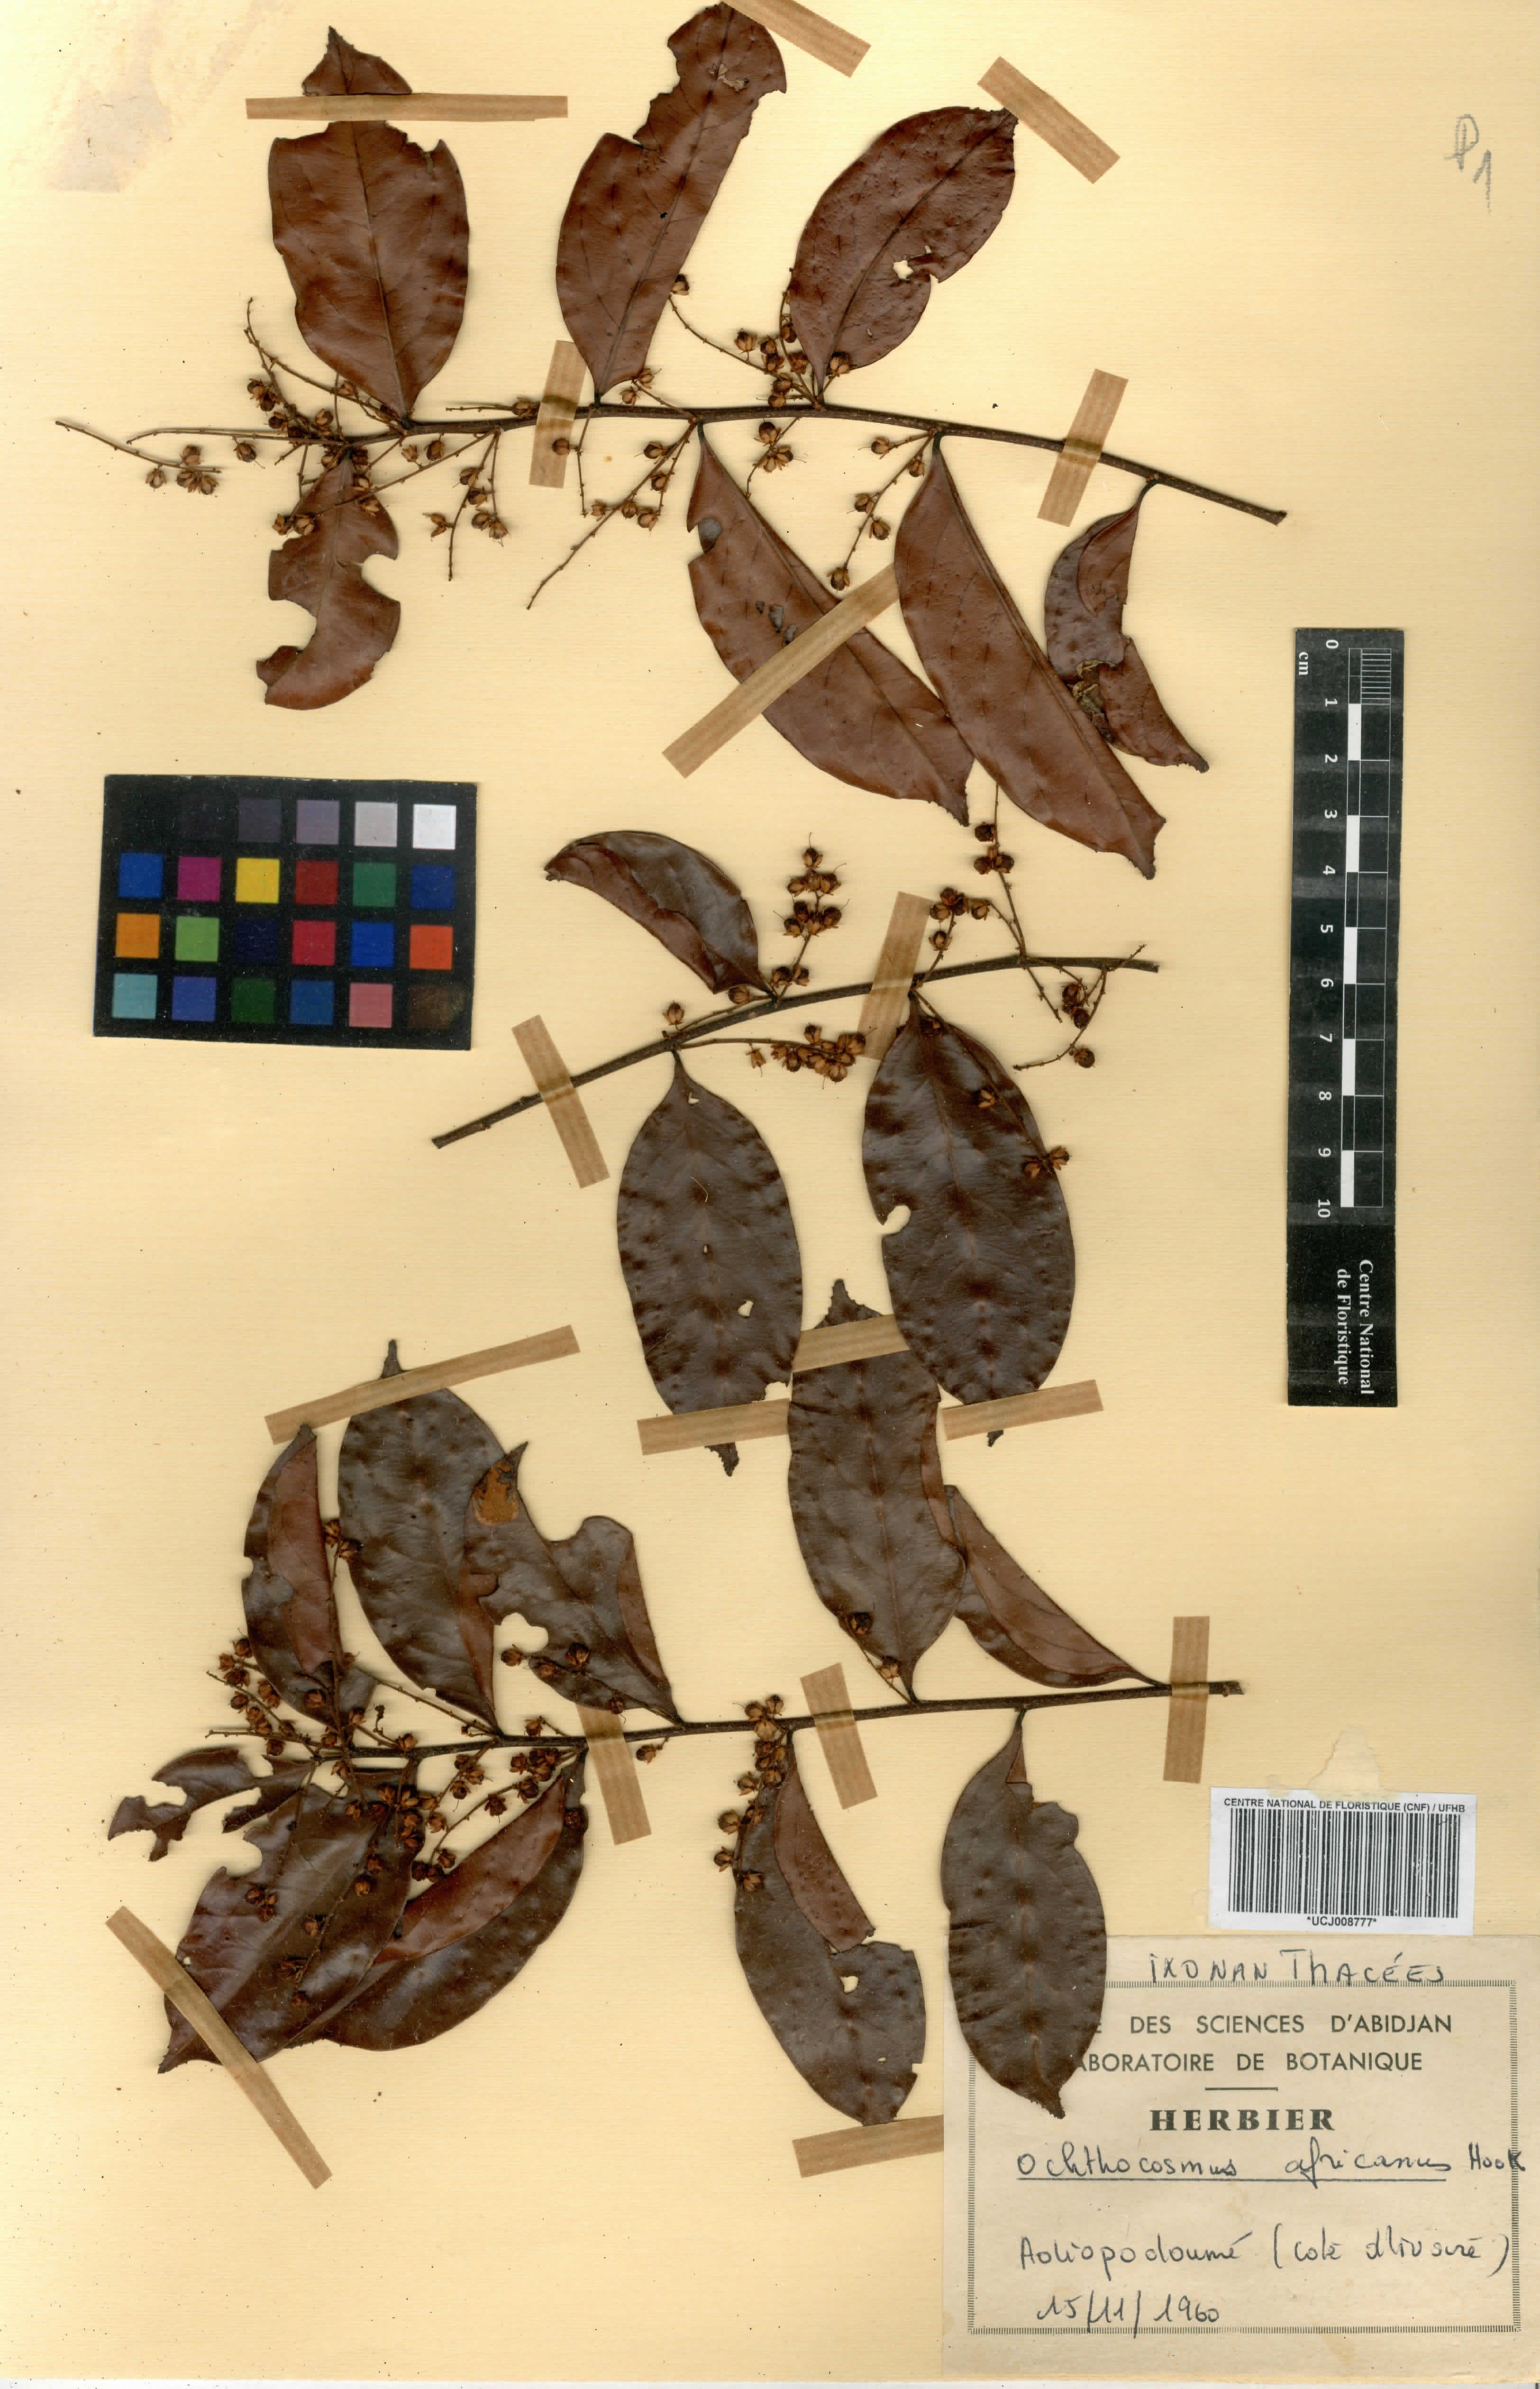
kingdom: Plantae
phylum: Tracheophyta
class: Magnoliopsida
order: Malpighiales
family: Ixonanthaceae
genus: Phyllocosmus
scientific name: Phyllocosmus africanus
